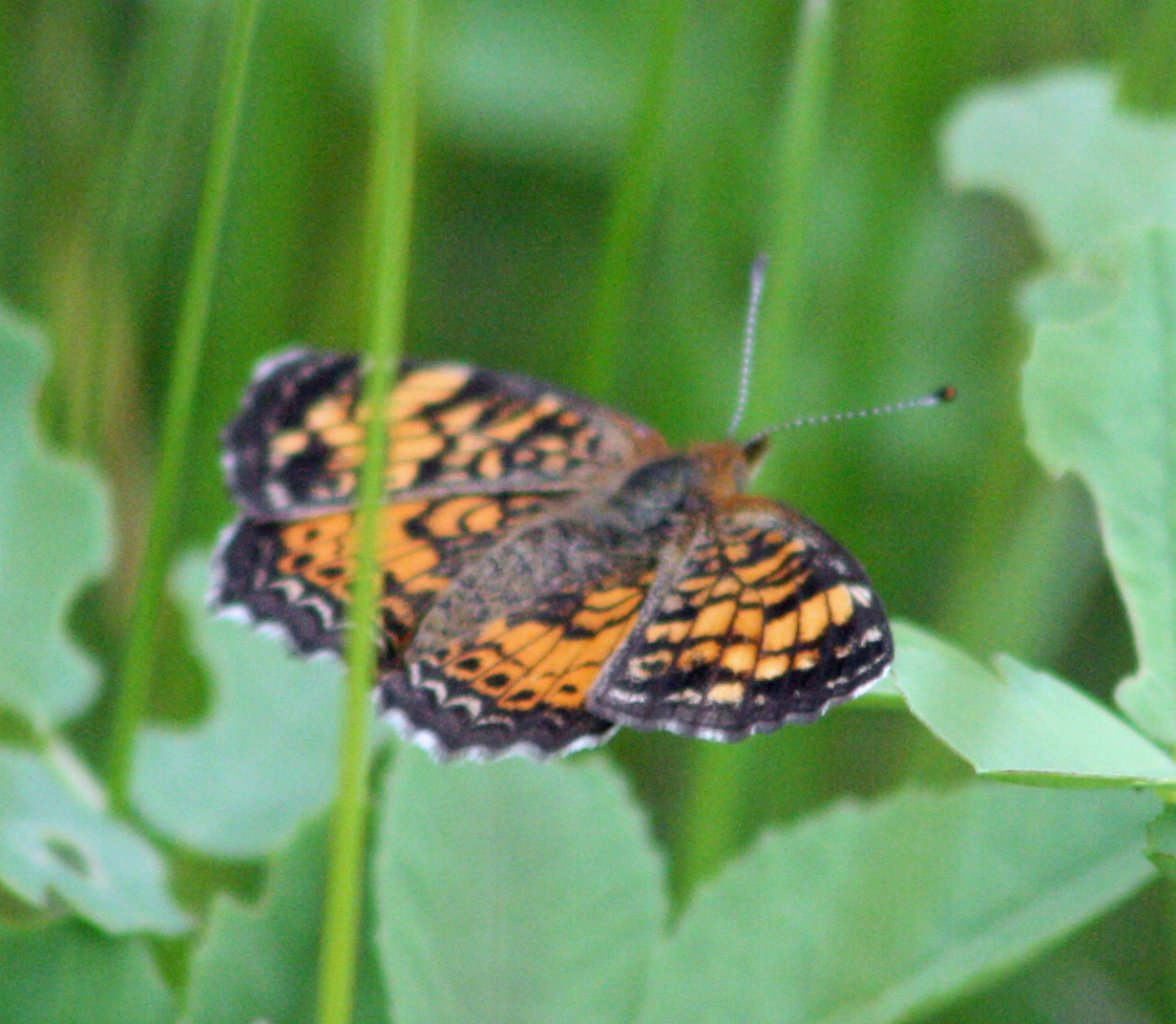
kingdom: Animalia
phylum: Arthropoda
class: Insecta
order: Lepidoptera
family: Nymphalidae
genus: Phyciodes
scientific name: Phyciodes tharos
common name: Pearl Crescent
